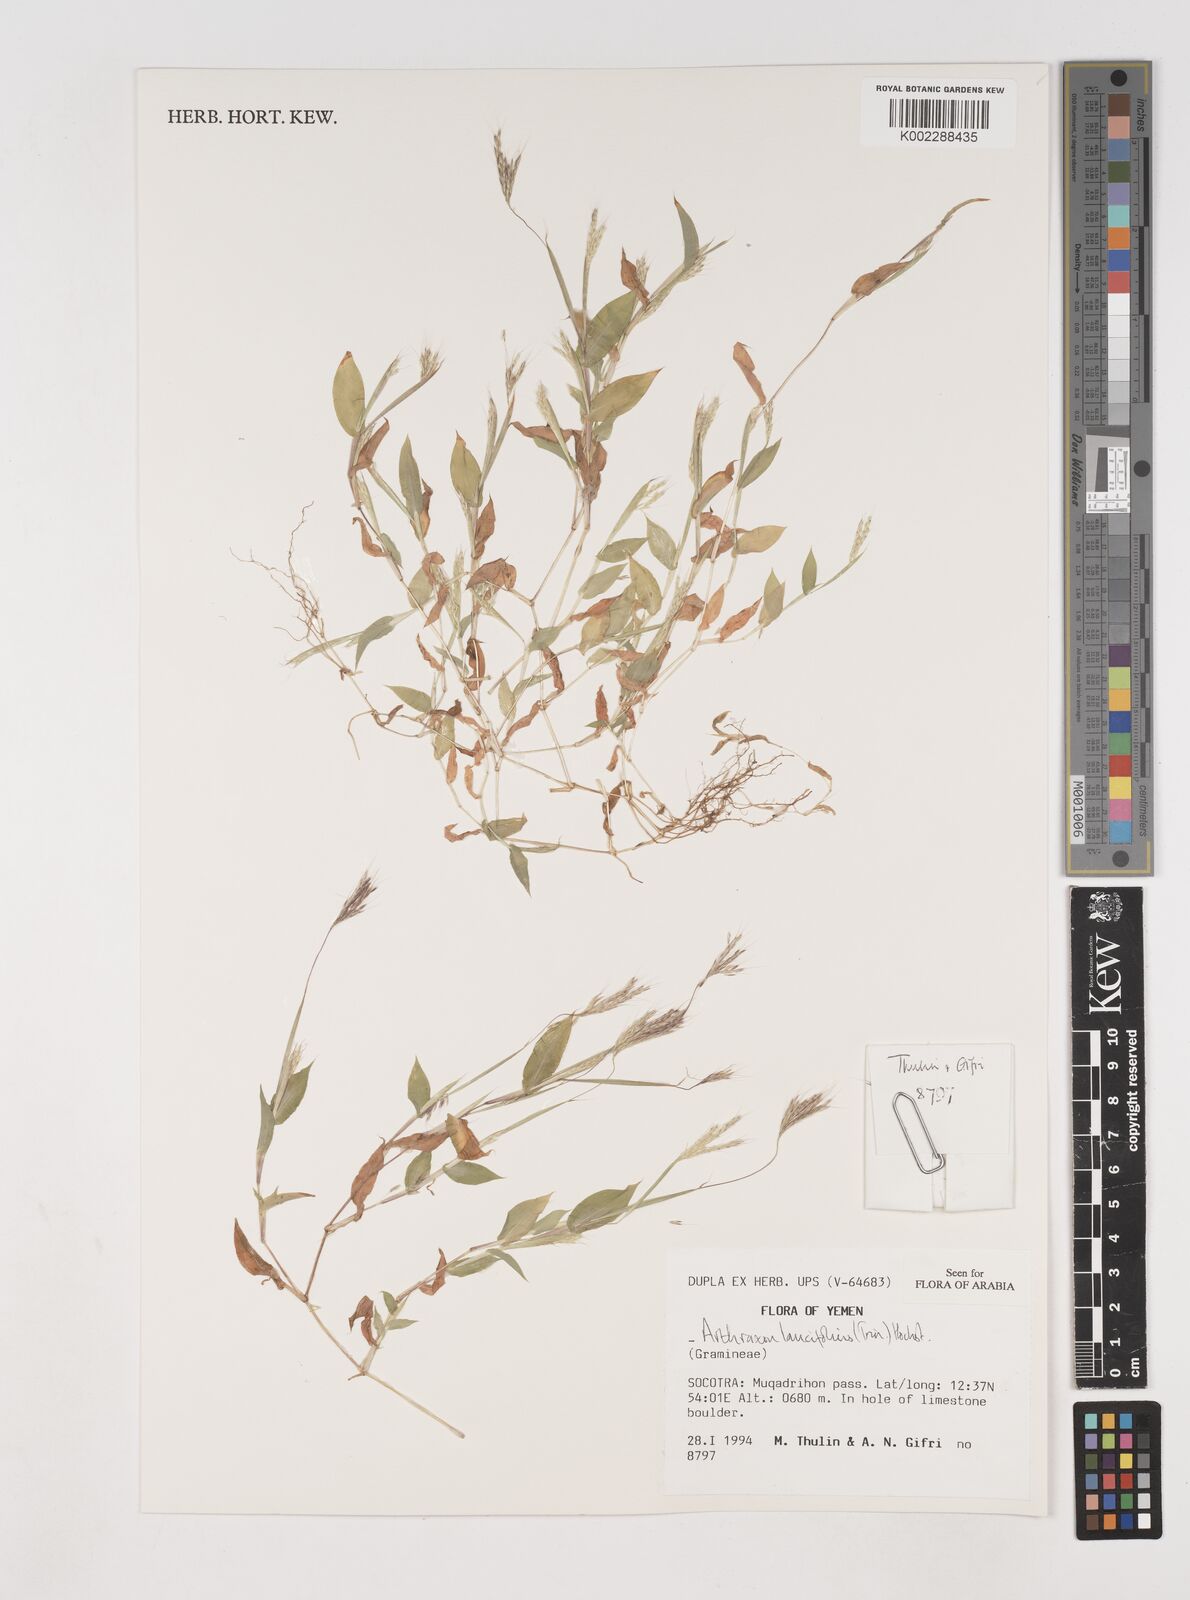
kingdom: Plantae
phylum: Tracheophyta
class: Liliopsida
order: Poales
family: Poaceae
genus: Arthraxon
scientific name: Arthraxon lancifolius
